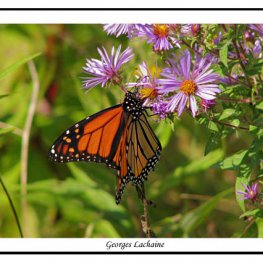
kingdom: Animalia
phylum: Arthropoda
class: Insecta
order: Lepidoptera
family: Nymphalidae
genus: Danaus
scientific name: Danaus plexippus
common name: Monarch
